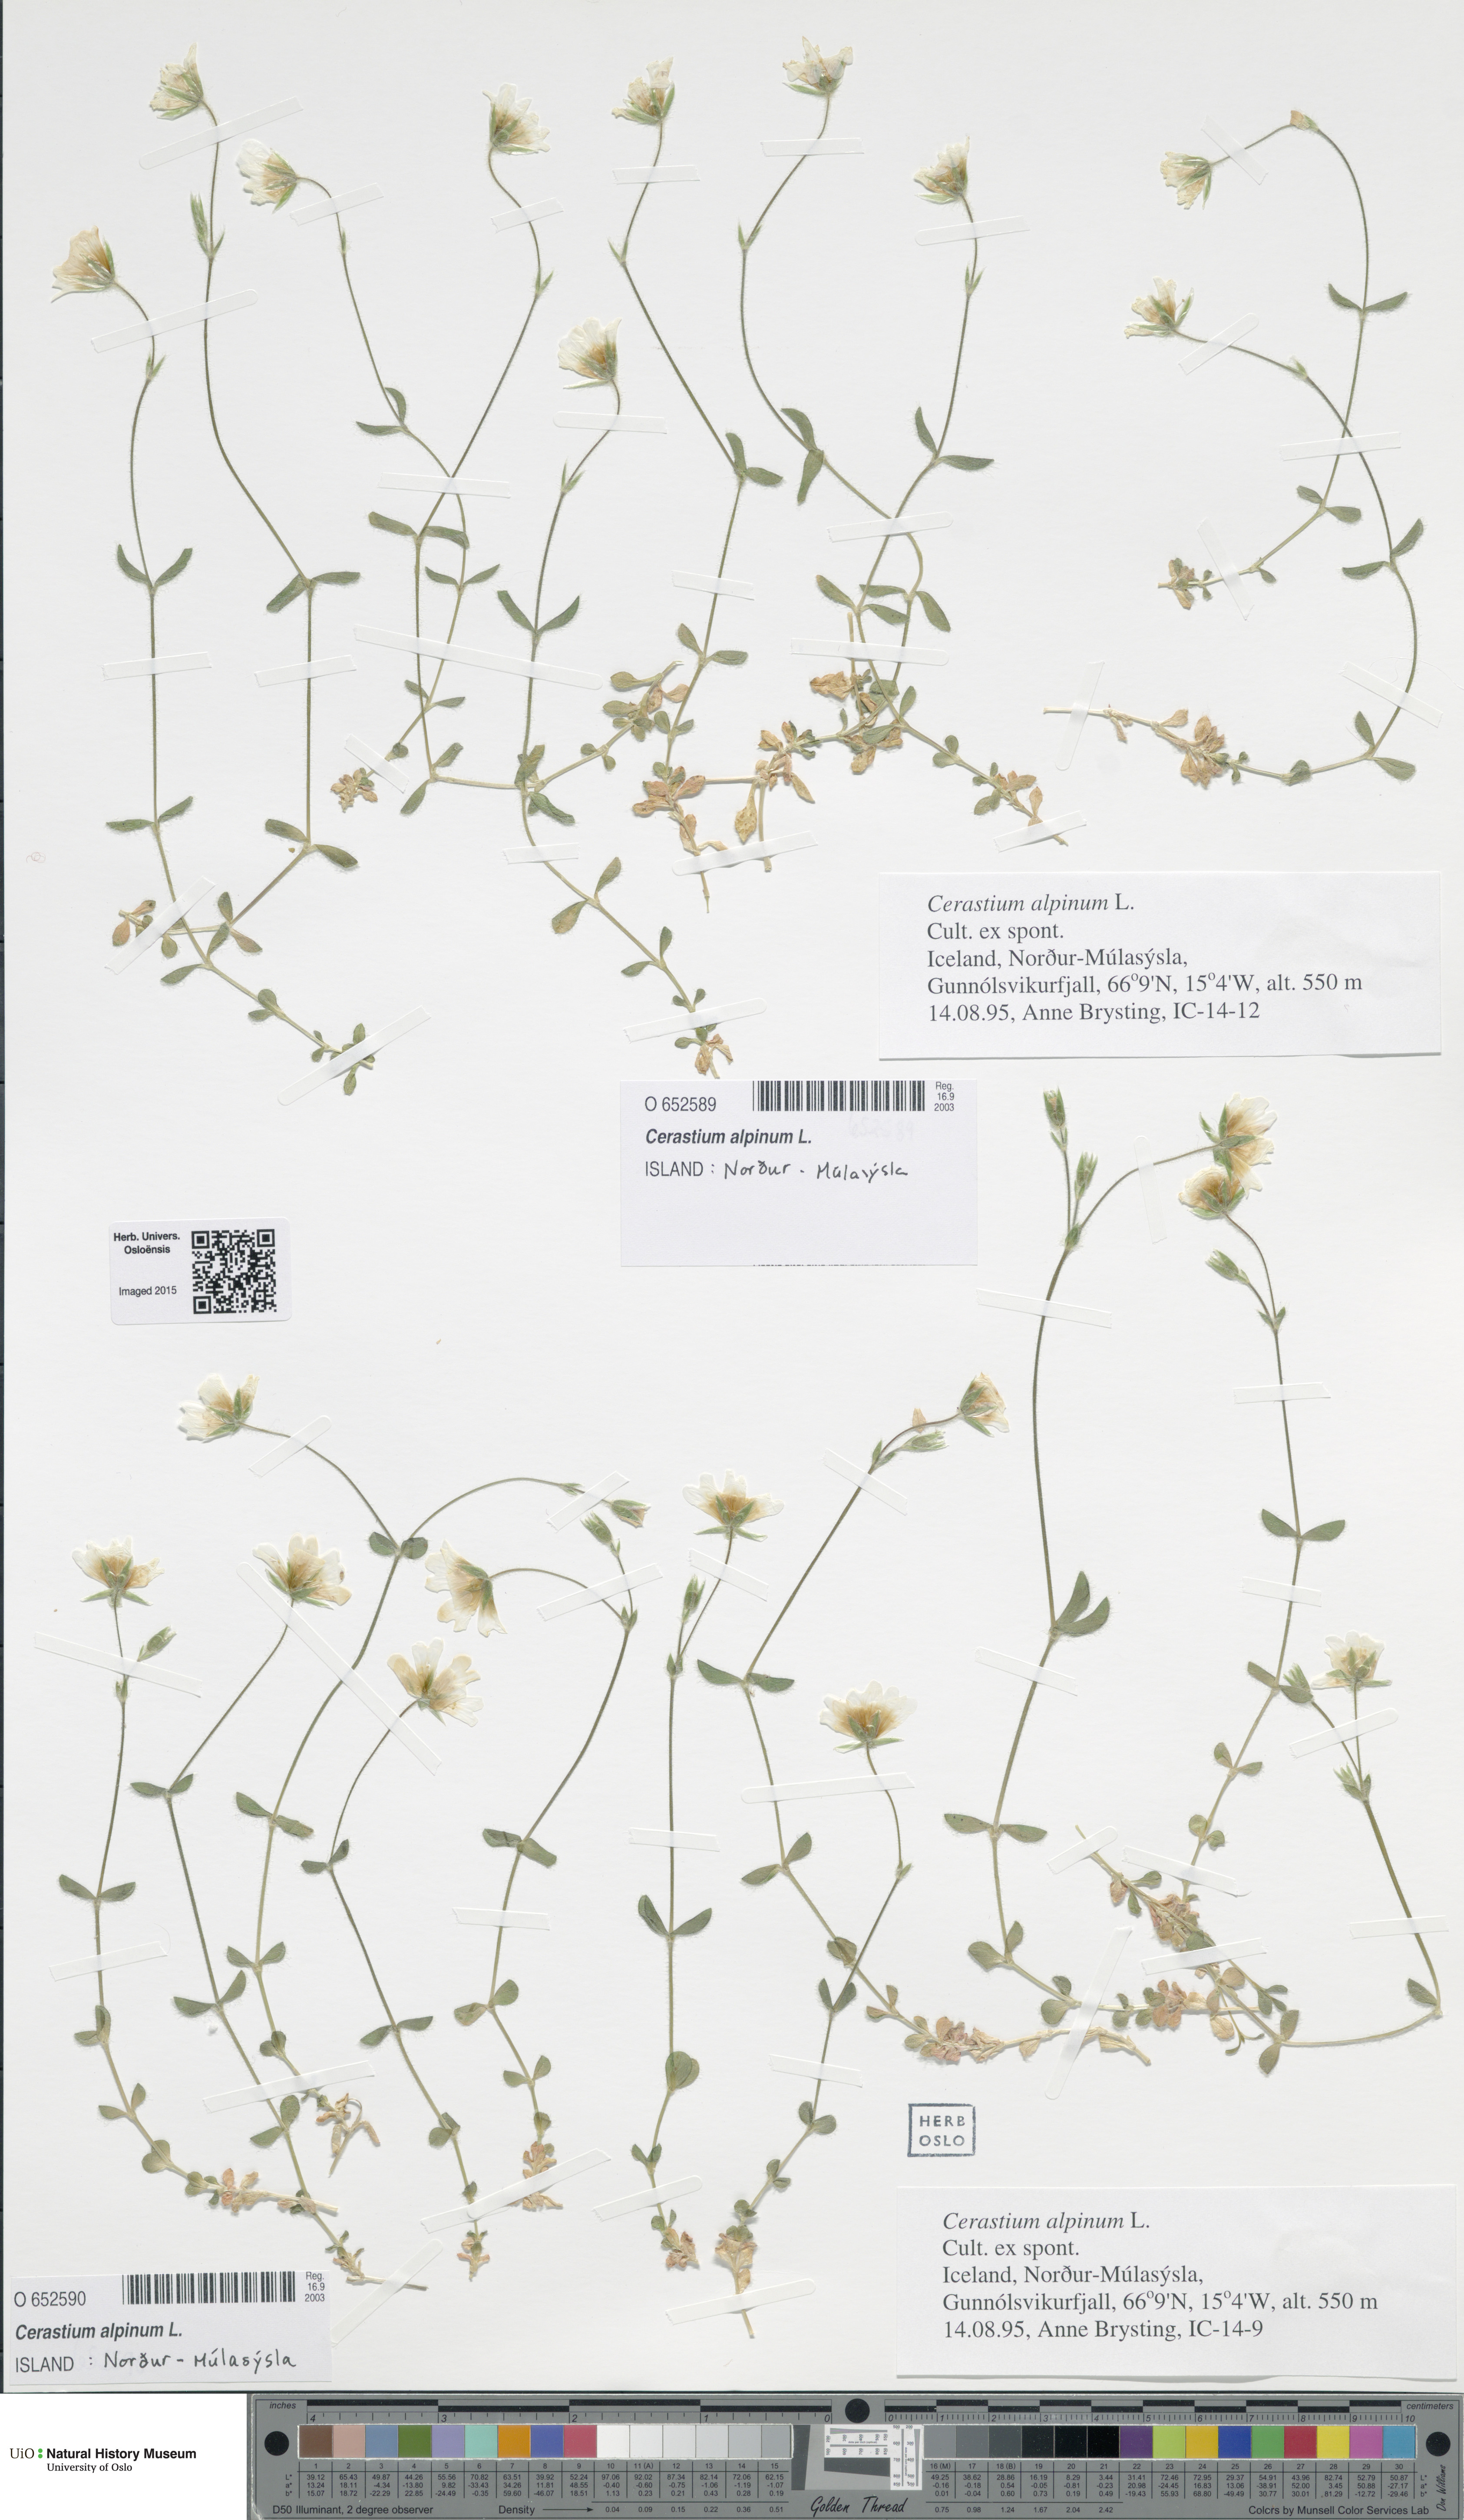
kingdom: Plantae
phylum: Tracheophyta
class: Magnoliopsida
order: Caryophyllales
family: Caryophyllaceae
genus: Cerastium
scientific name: Cerastium alpinum
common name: Alpine mouse-ear
